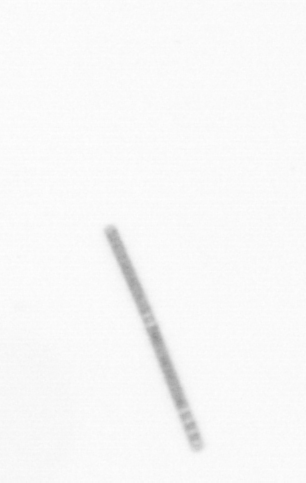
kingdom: Chromista
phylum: Ochrophyta
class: Bacillariophyceae
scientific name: Bacillariophyceae
